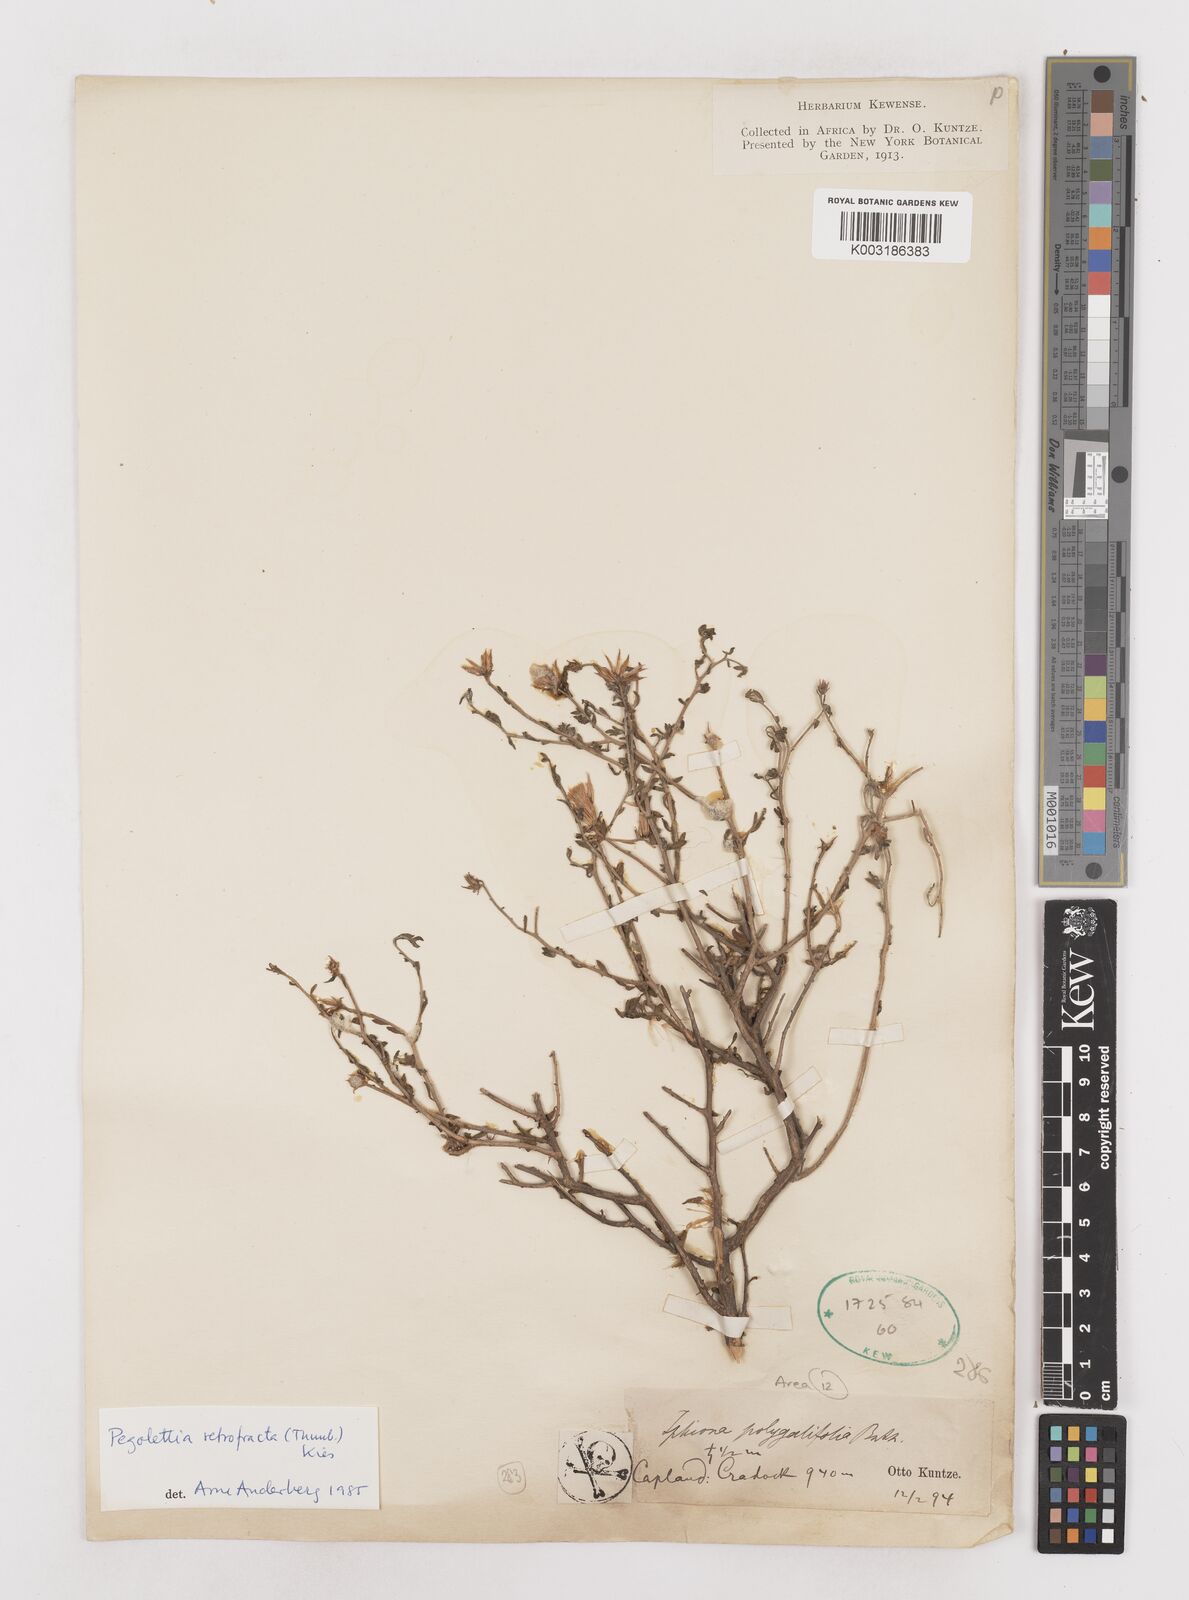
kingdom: Plantae
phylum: Tracheophyta
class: Magnoliopsida
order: Asterales
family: Asteraceae
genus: Pegolettia
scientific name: Pegolettia retrofracta
